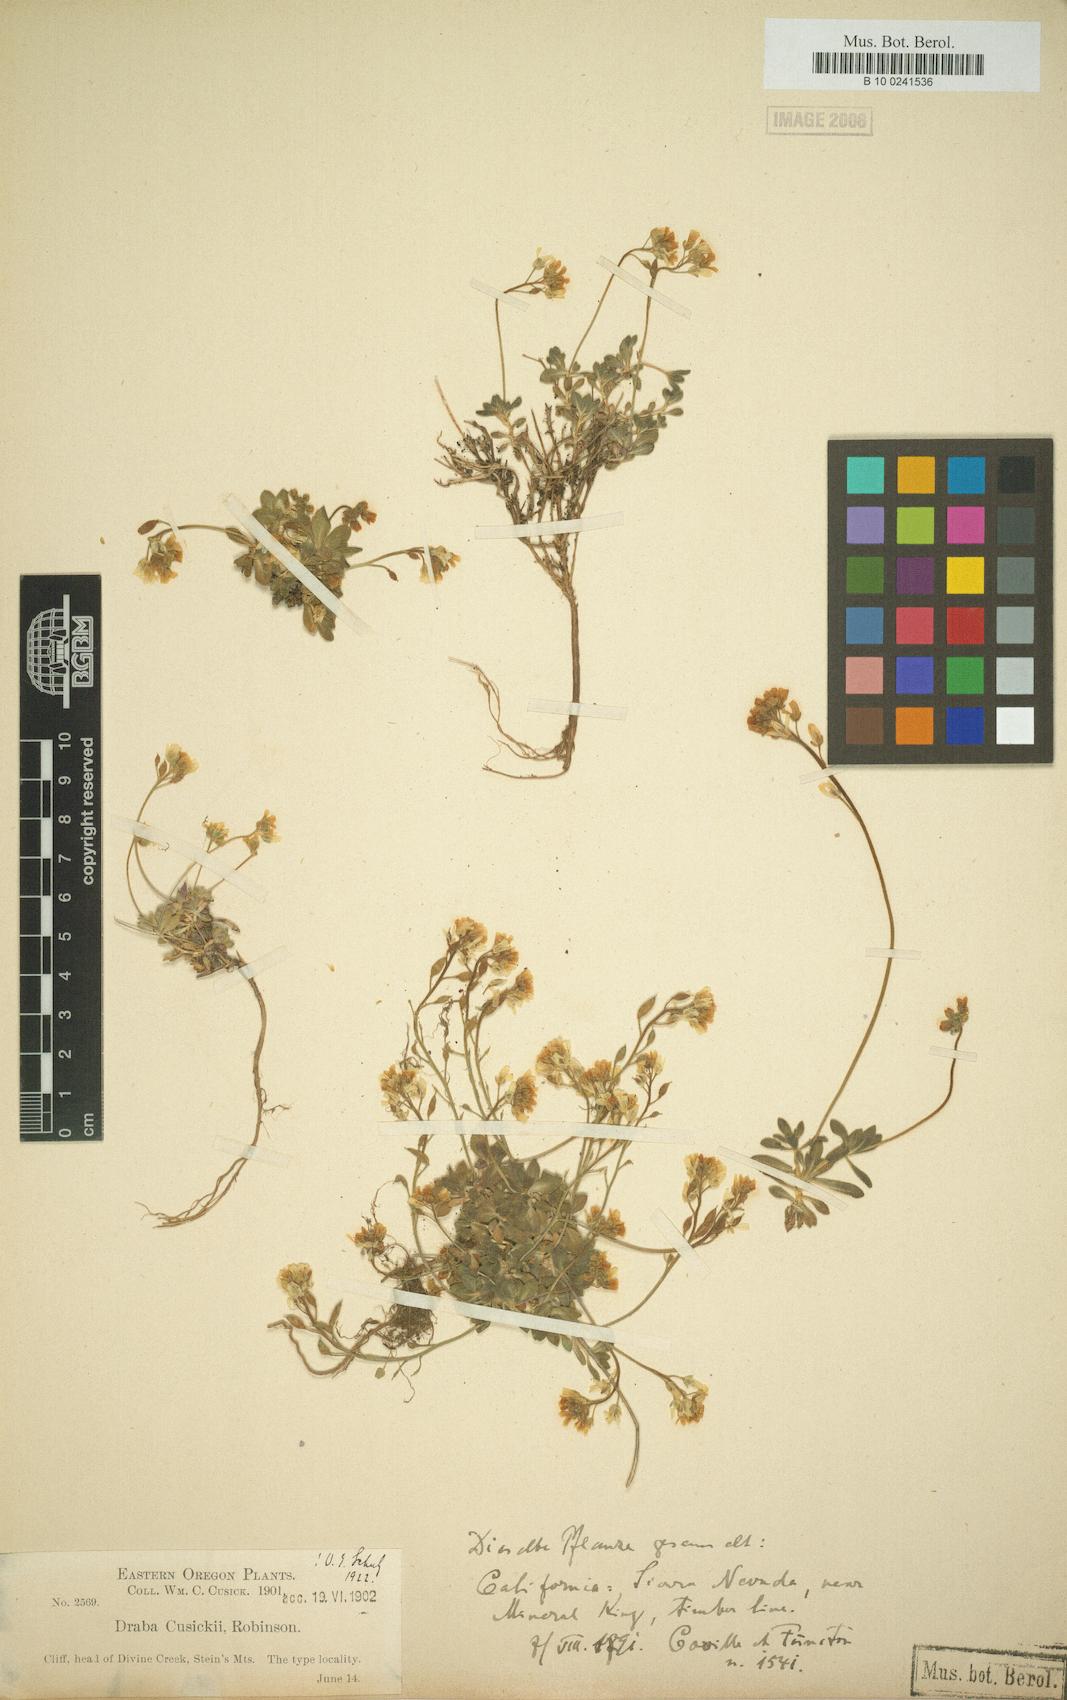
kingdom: Plantae
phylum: Tracheophyta
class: Magnoliopsida
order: Brassicales
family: Brassicaceae
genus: Draba
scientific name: Draba cusickii
